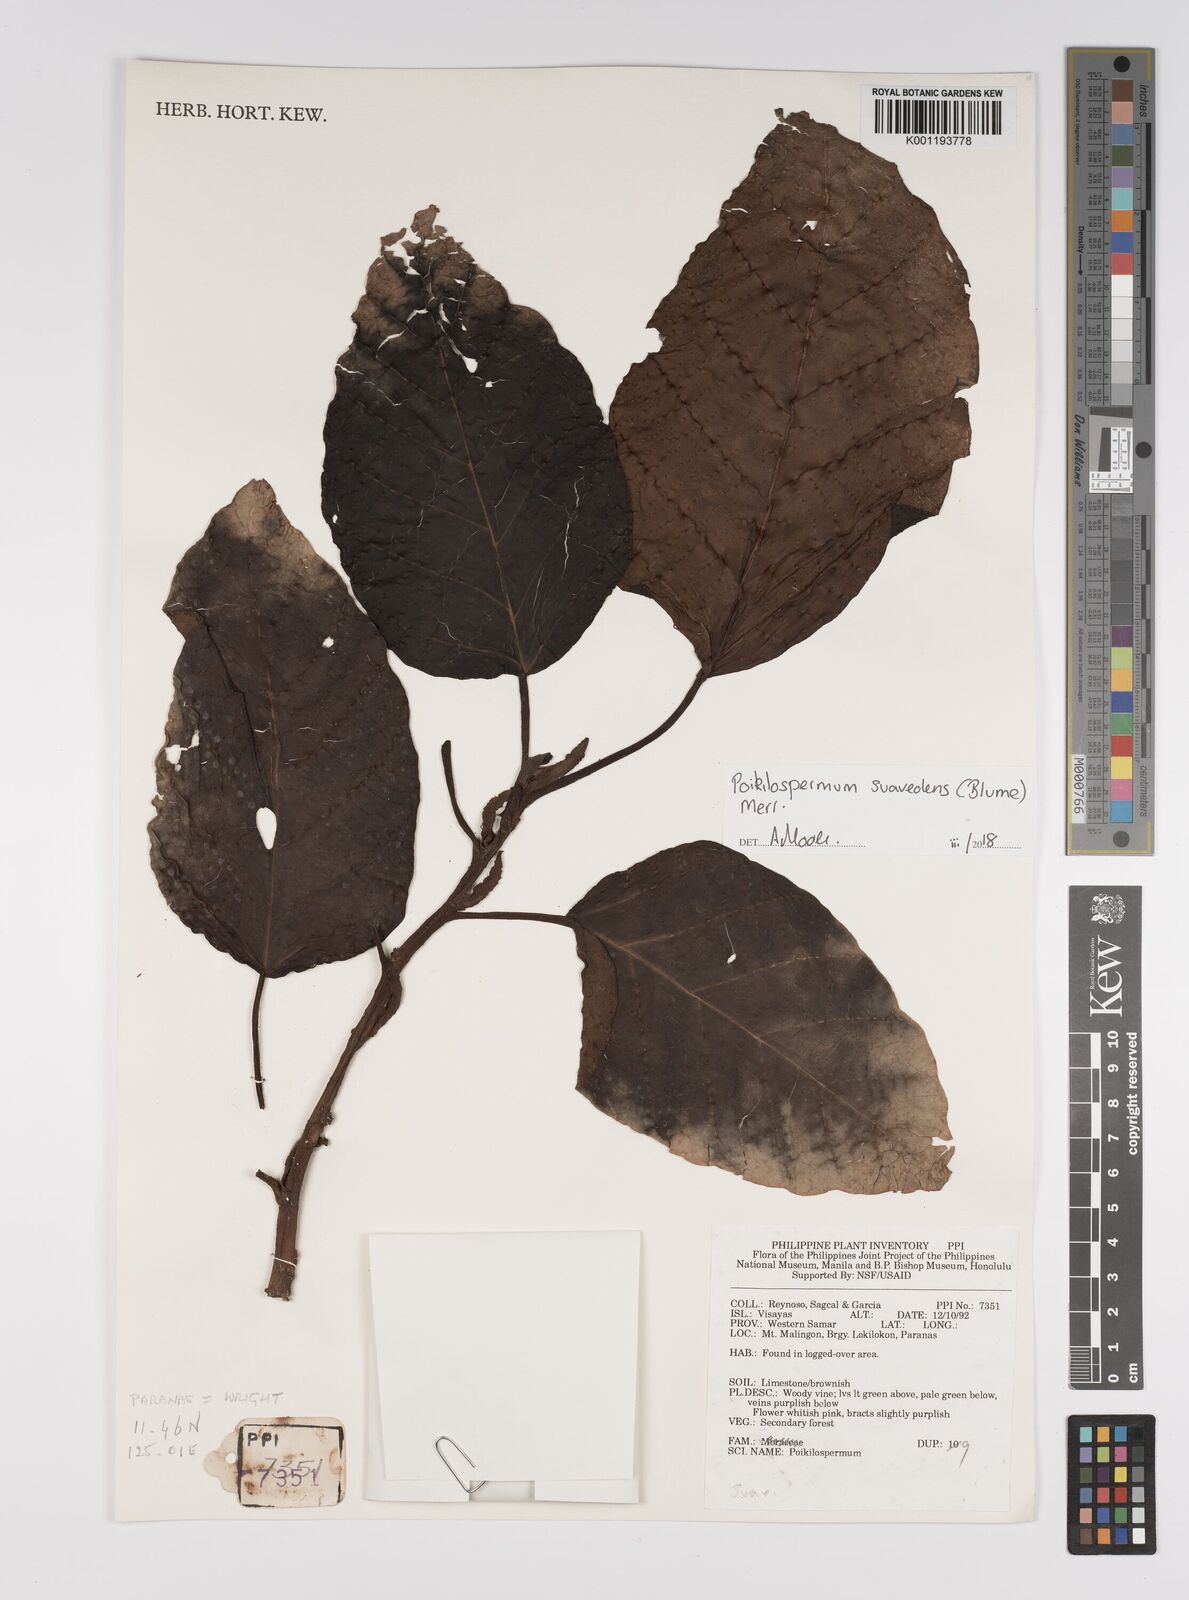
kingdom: Plantae
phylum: Tracheophyta
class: Magnoliopsida
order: Rosales
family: Urticaceae
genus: Poikilospermum
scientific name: Poikilospermum suaveolens
